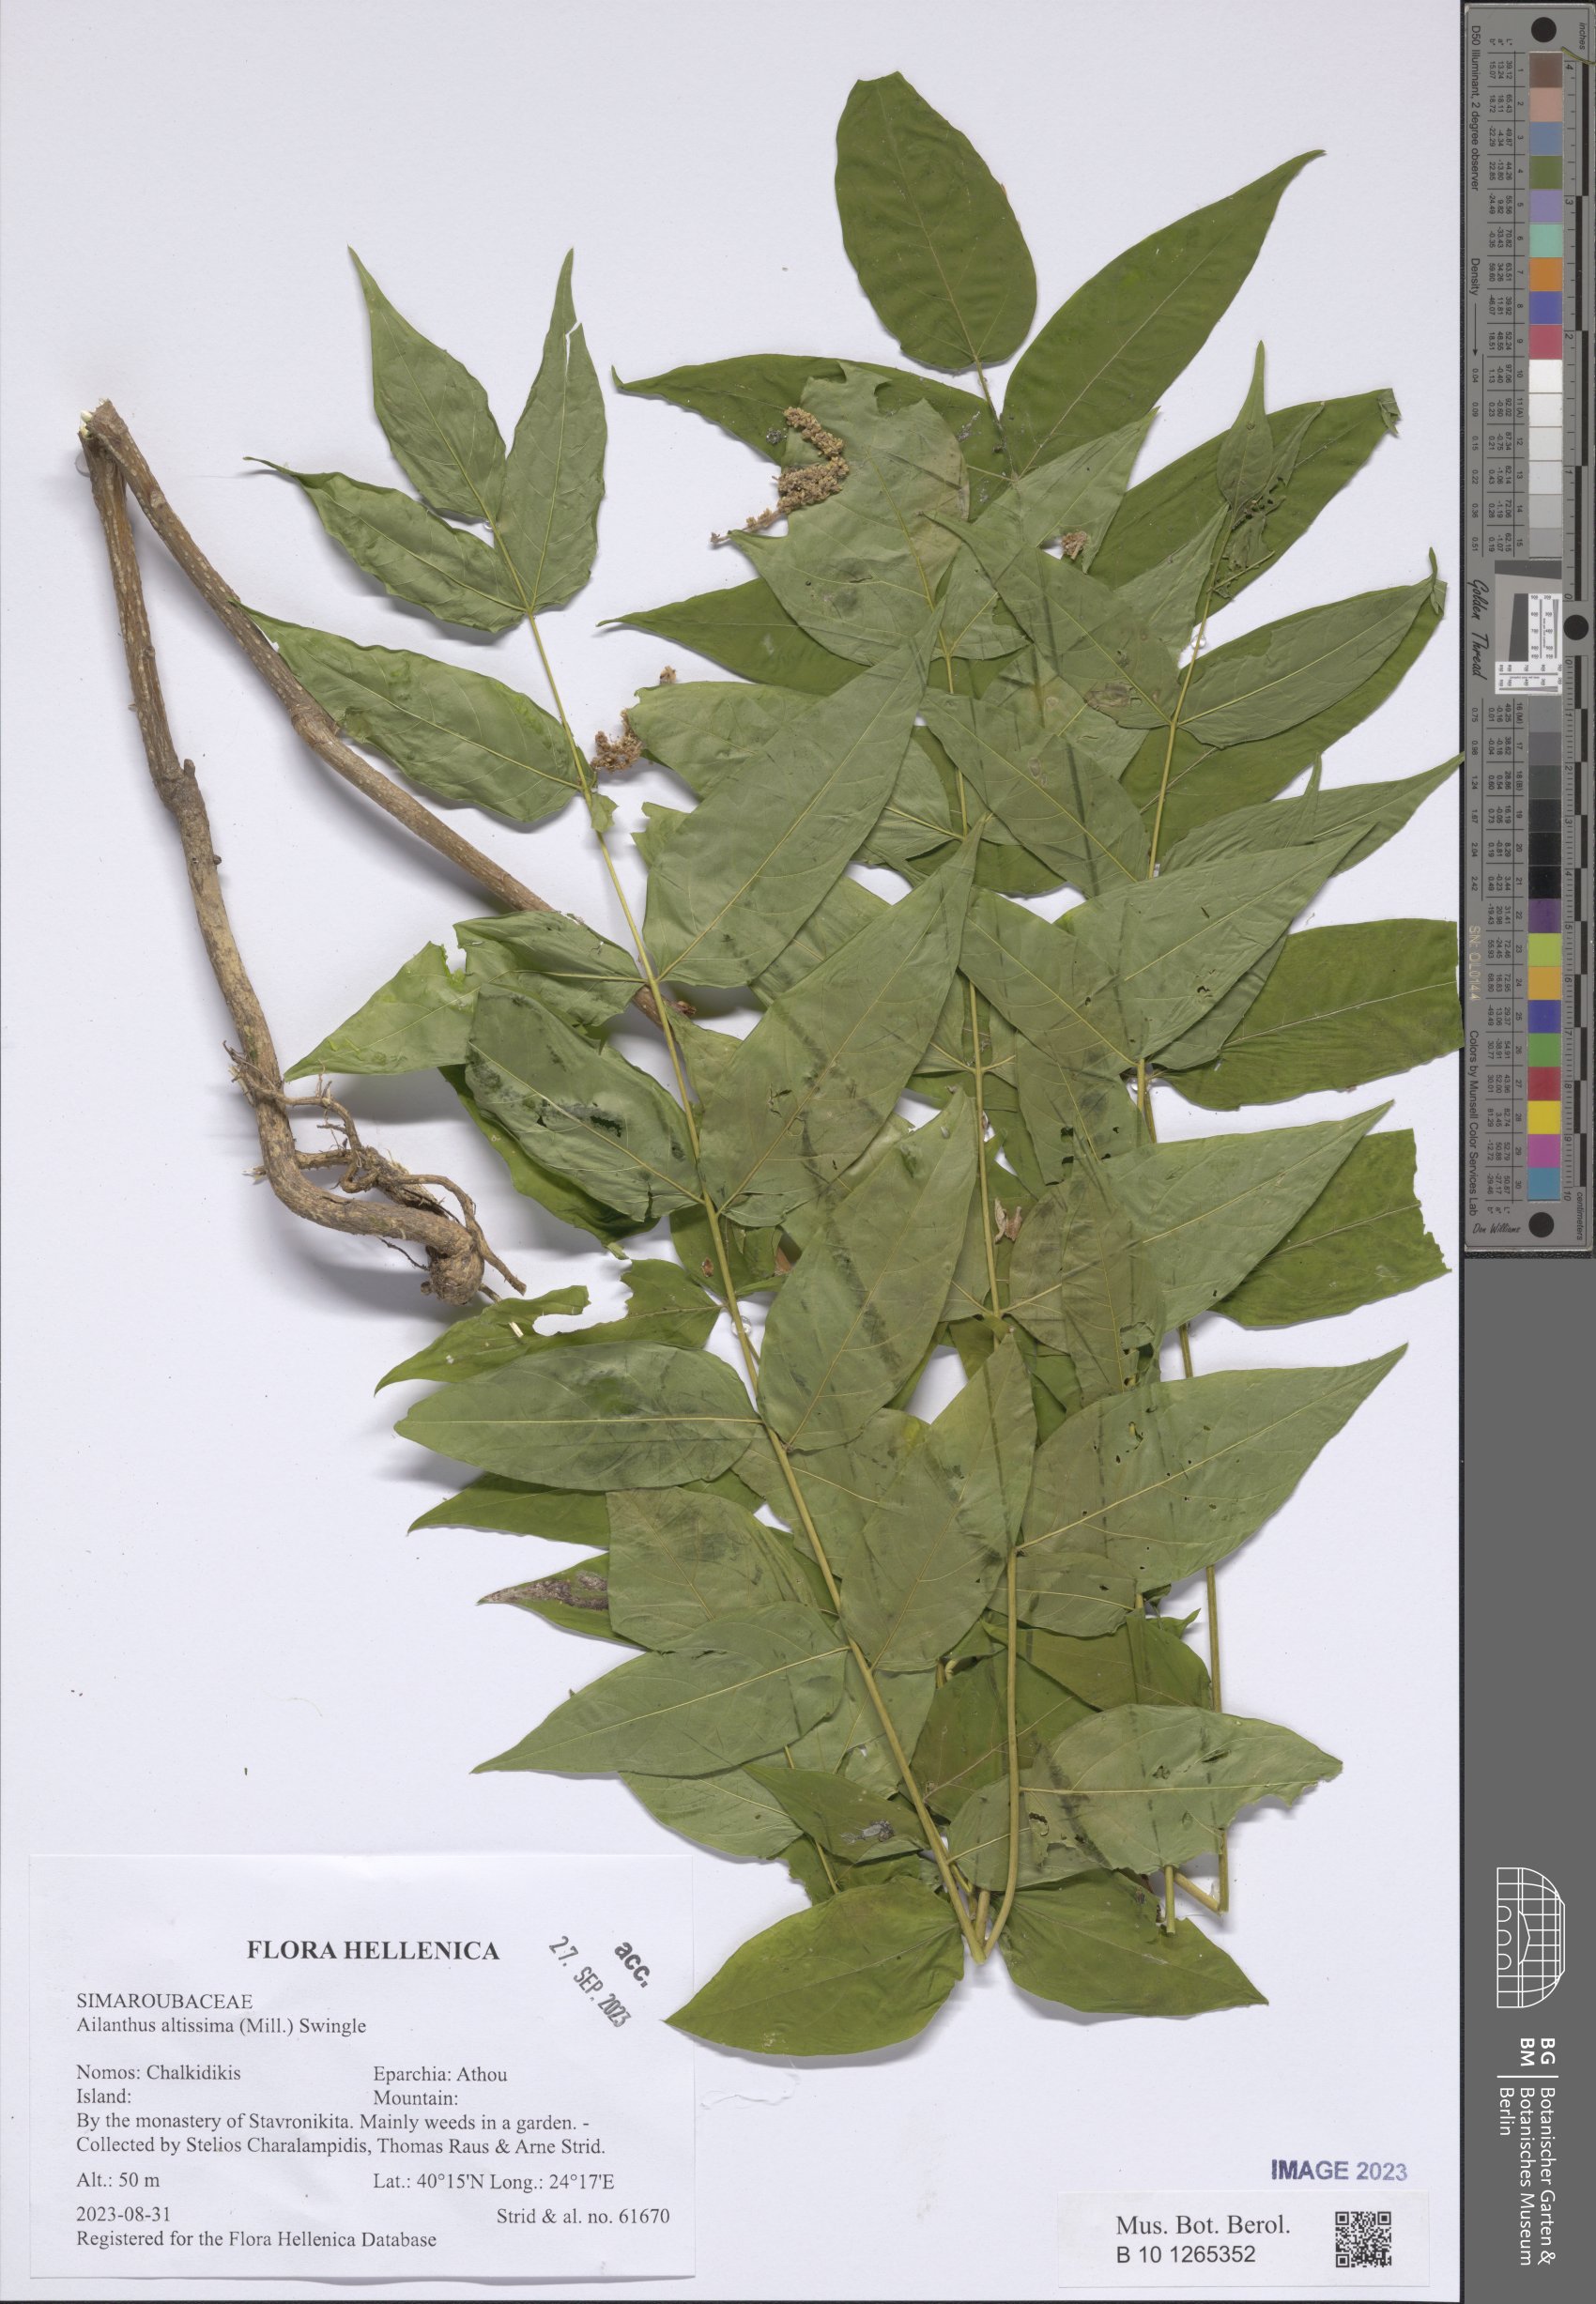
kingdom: Plantae
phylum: Tracheophyta
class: Magnoliopsida
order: Sapindales
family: Simaroubaceae
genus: Ailanthus
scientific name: Ailanthus altissima
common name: Tree-of-heaven
